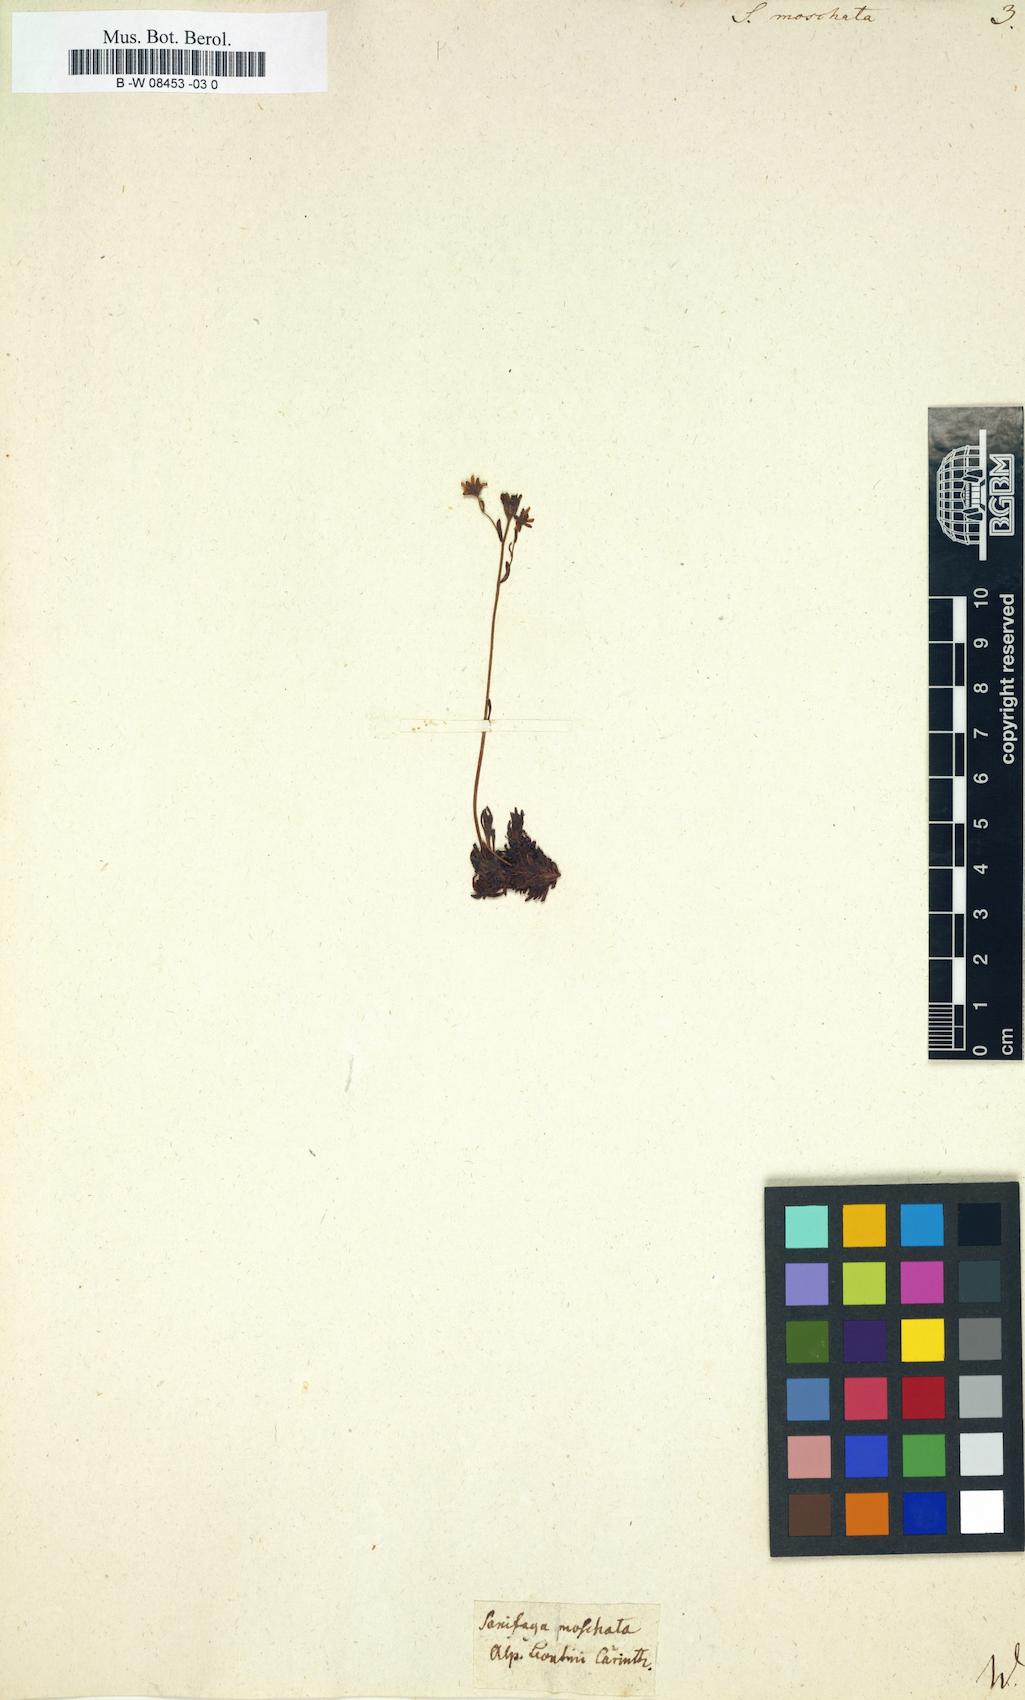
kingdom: Plantae
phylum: Tracheophyta
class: Magnoliopsida
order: Saxifragales
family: Saxifragaceae
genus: Saxifraga
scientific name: Saxifraga
